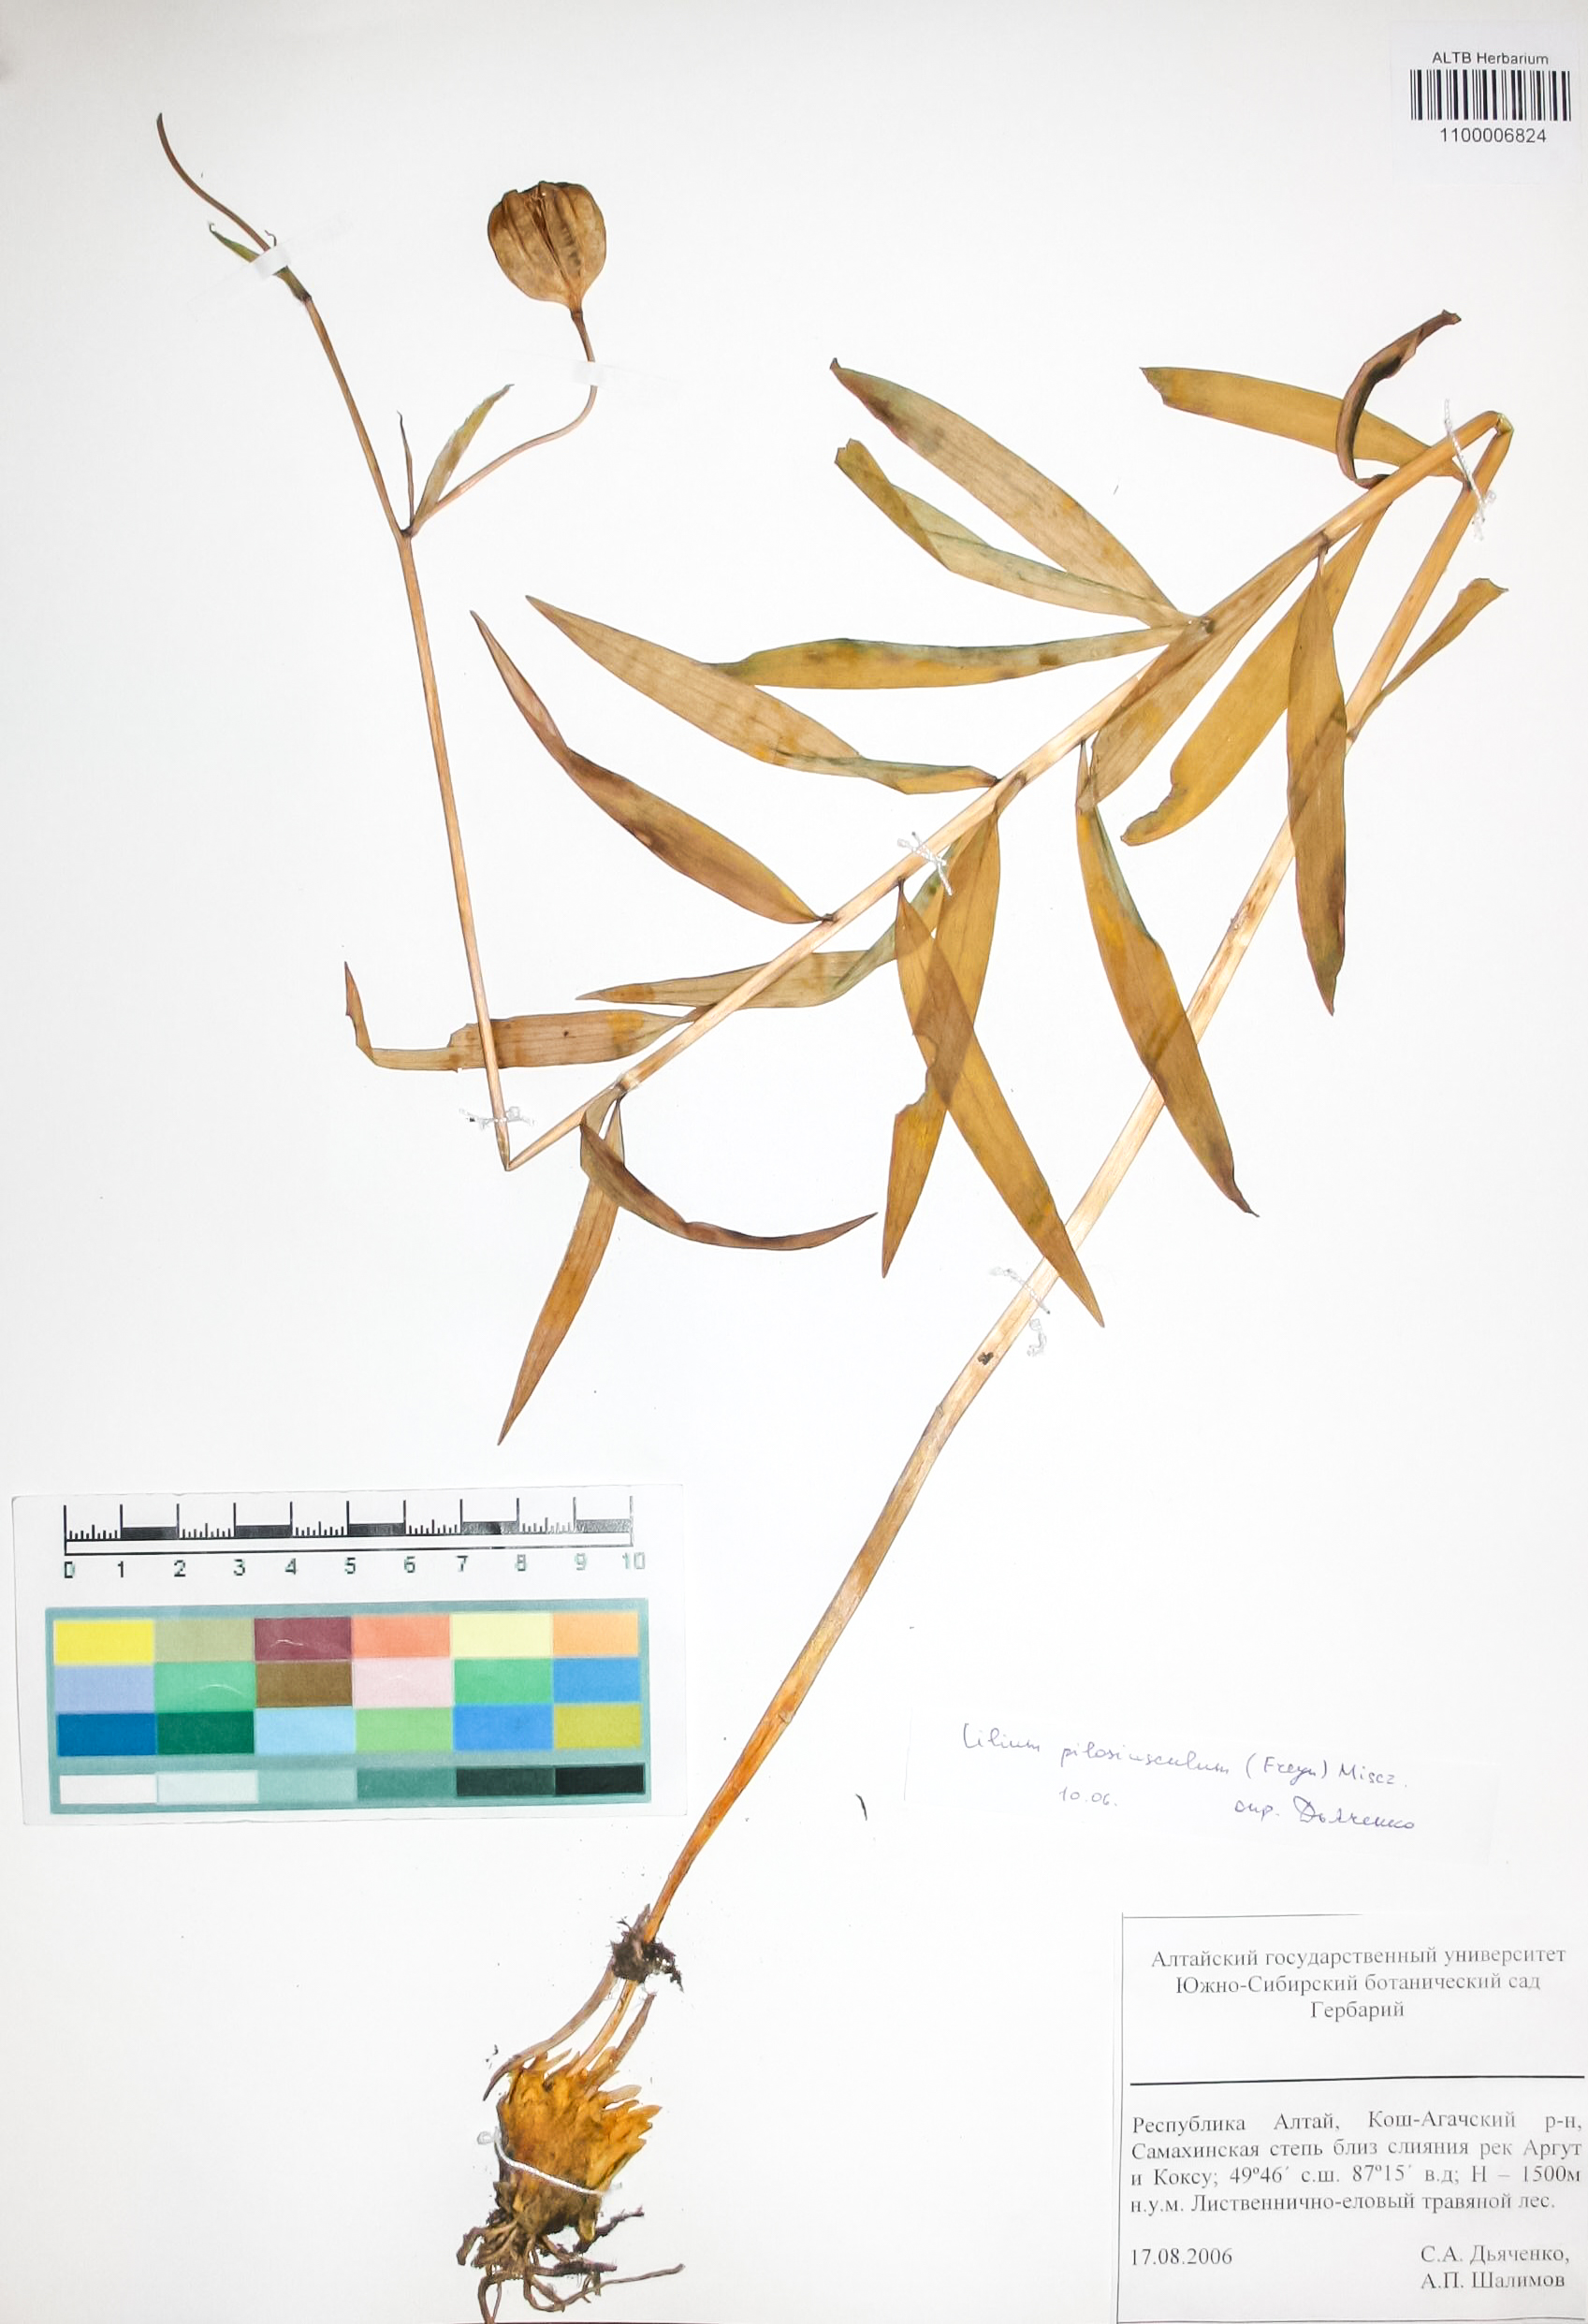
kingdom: Plantae
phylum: Tracheophyta
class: Liliopsida
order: Liliales
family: Liliaceae
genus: Lilium
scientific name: Lilium martagon
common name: Martagon lily
